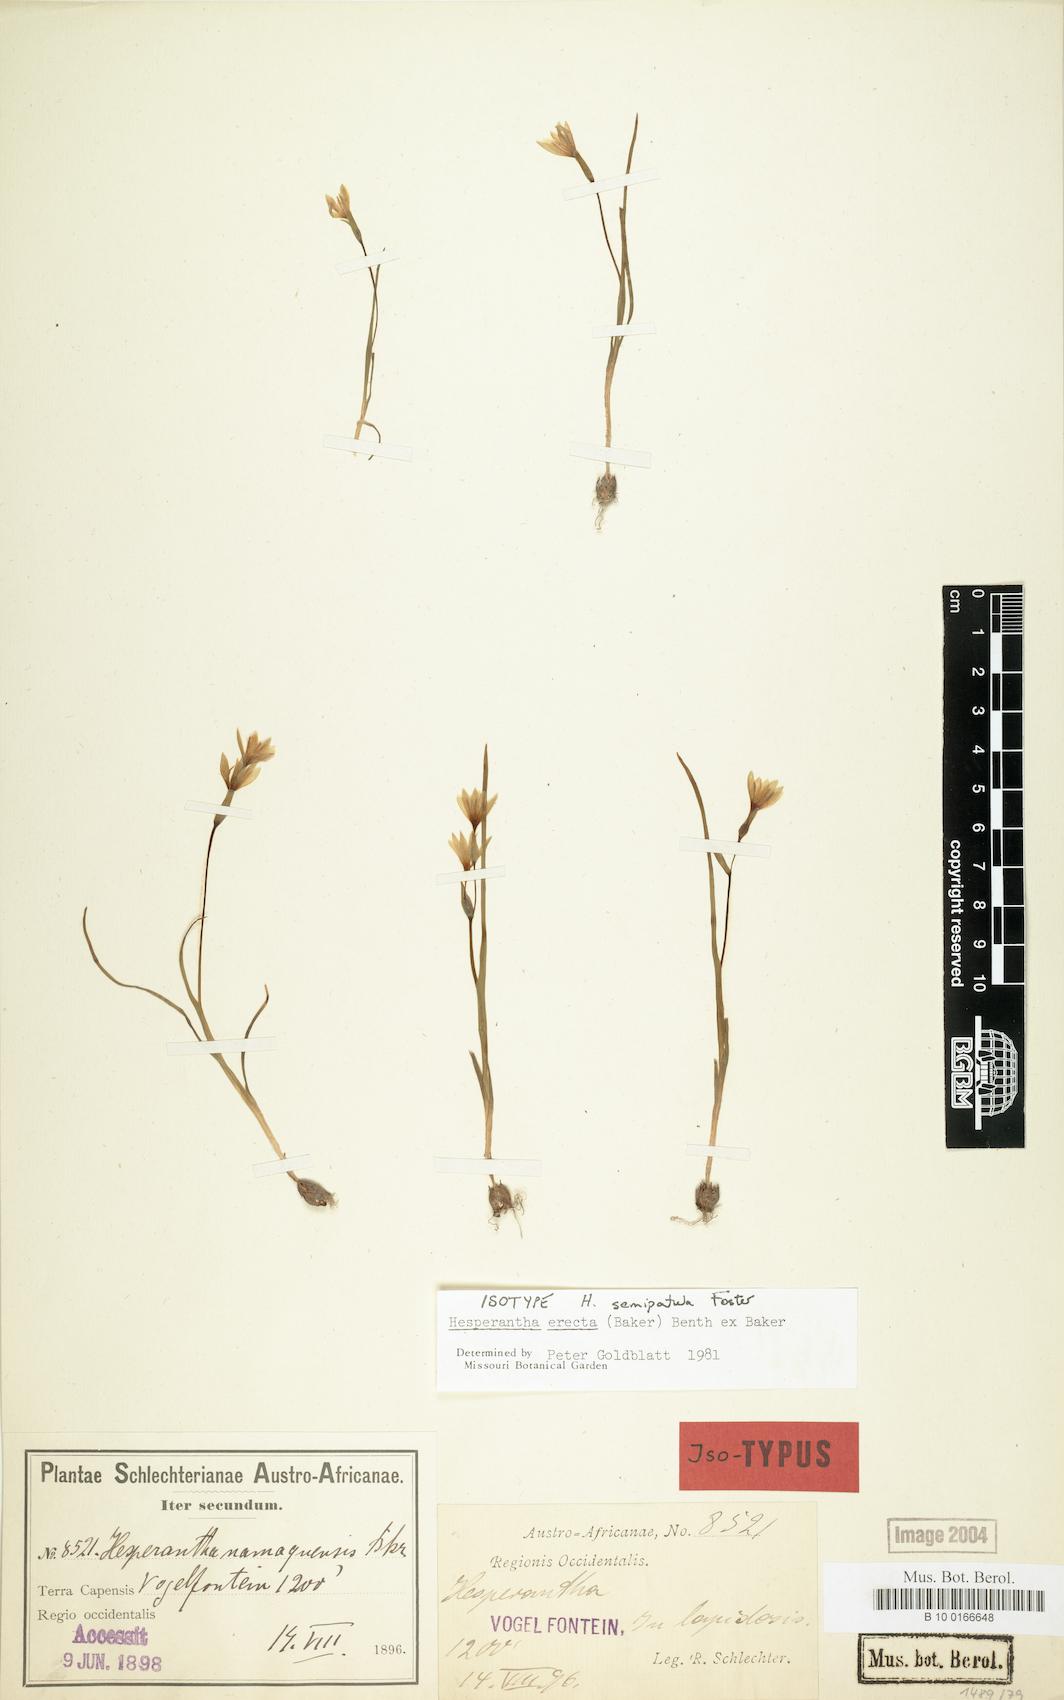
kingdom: Plantae
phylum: Tracheophyta
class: Liliopsida
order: Asparagales
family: Iridaceae
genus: Hesperantha
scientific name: Hesperantha erecta
